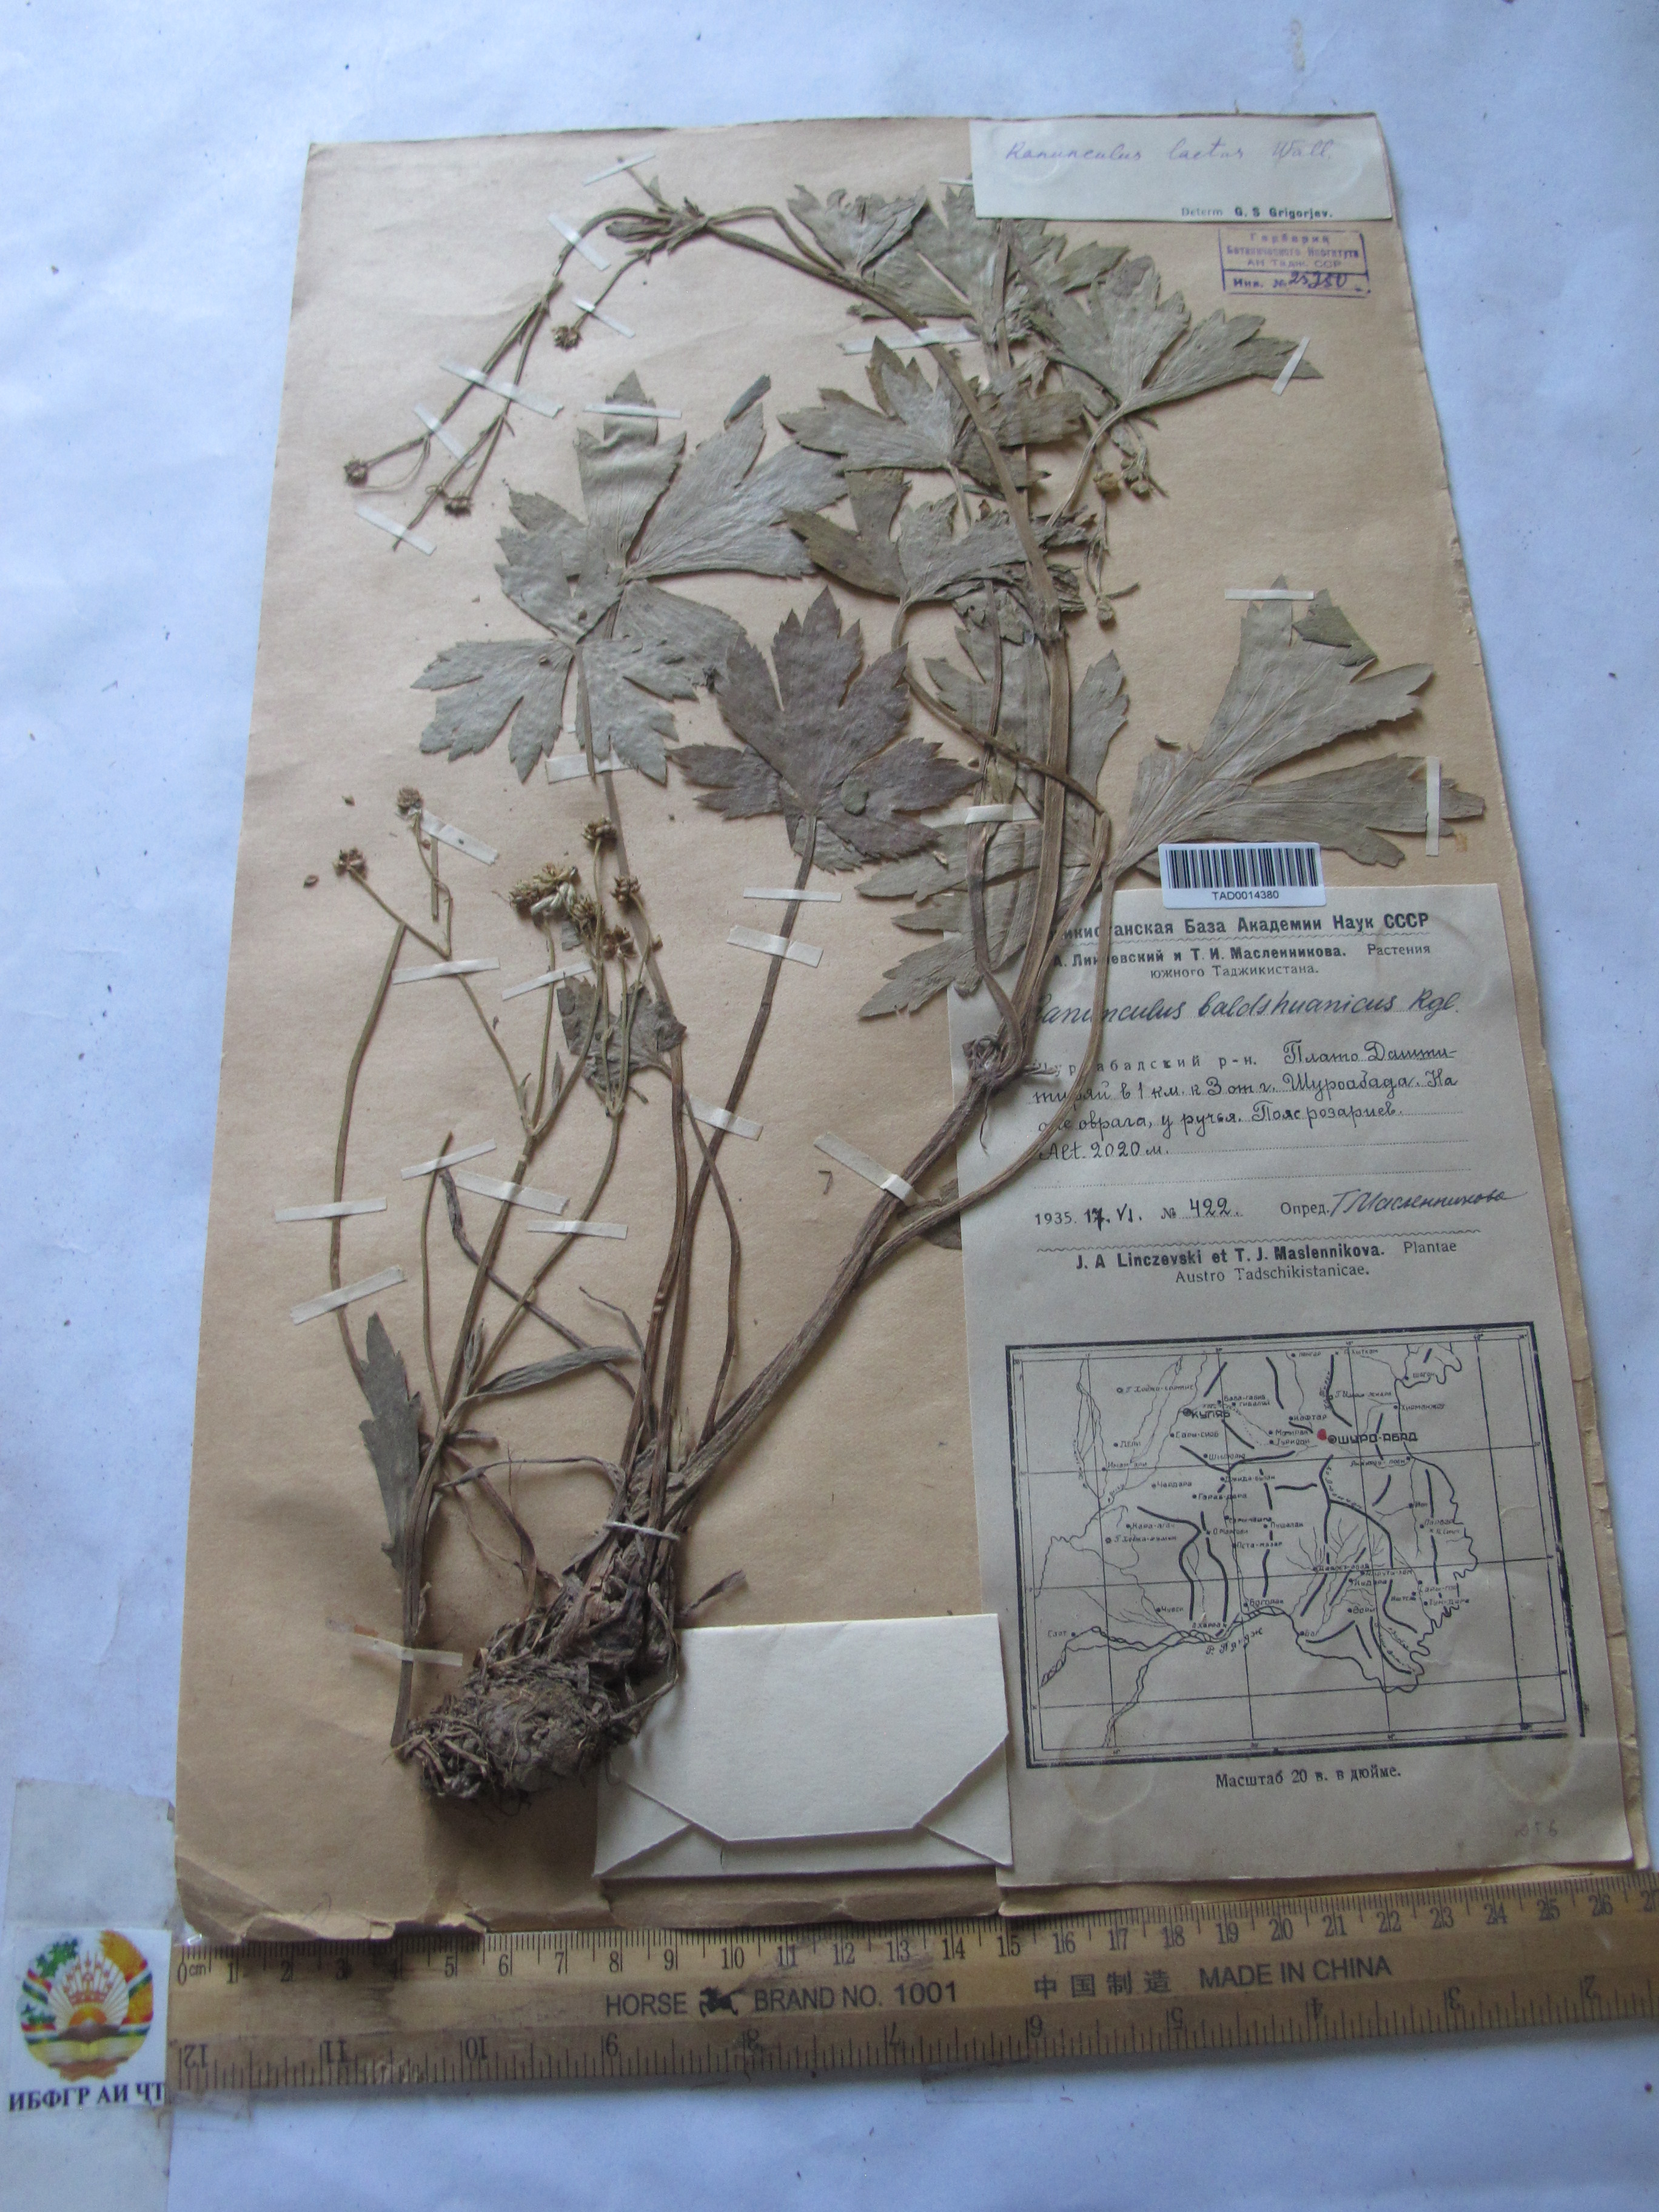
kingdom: Plantae
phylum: Tracheophyta
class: Magnoliopsida
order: Ranunculales
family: Ranunculaceae
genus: Ranunculus
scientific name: Ranunculus distans
